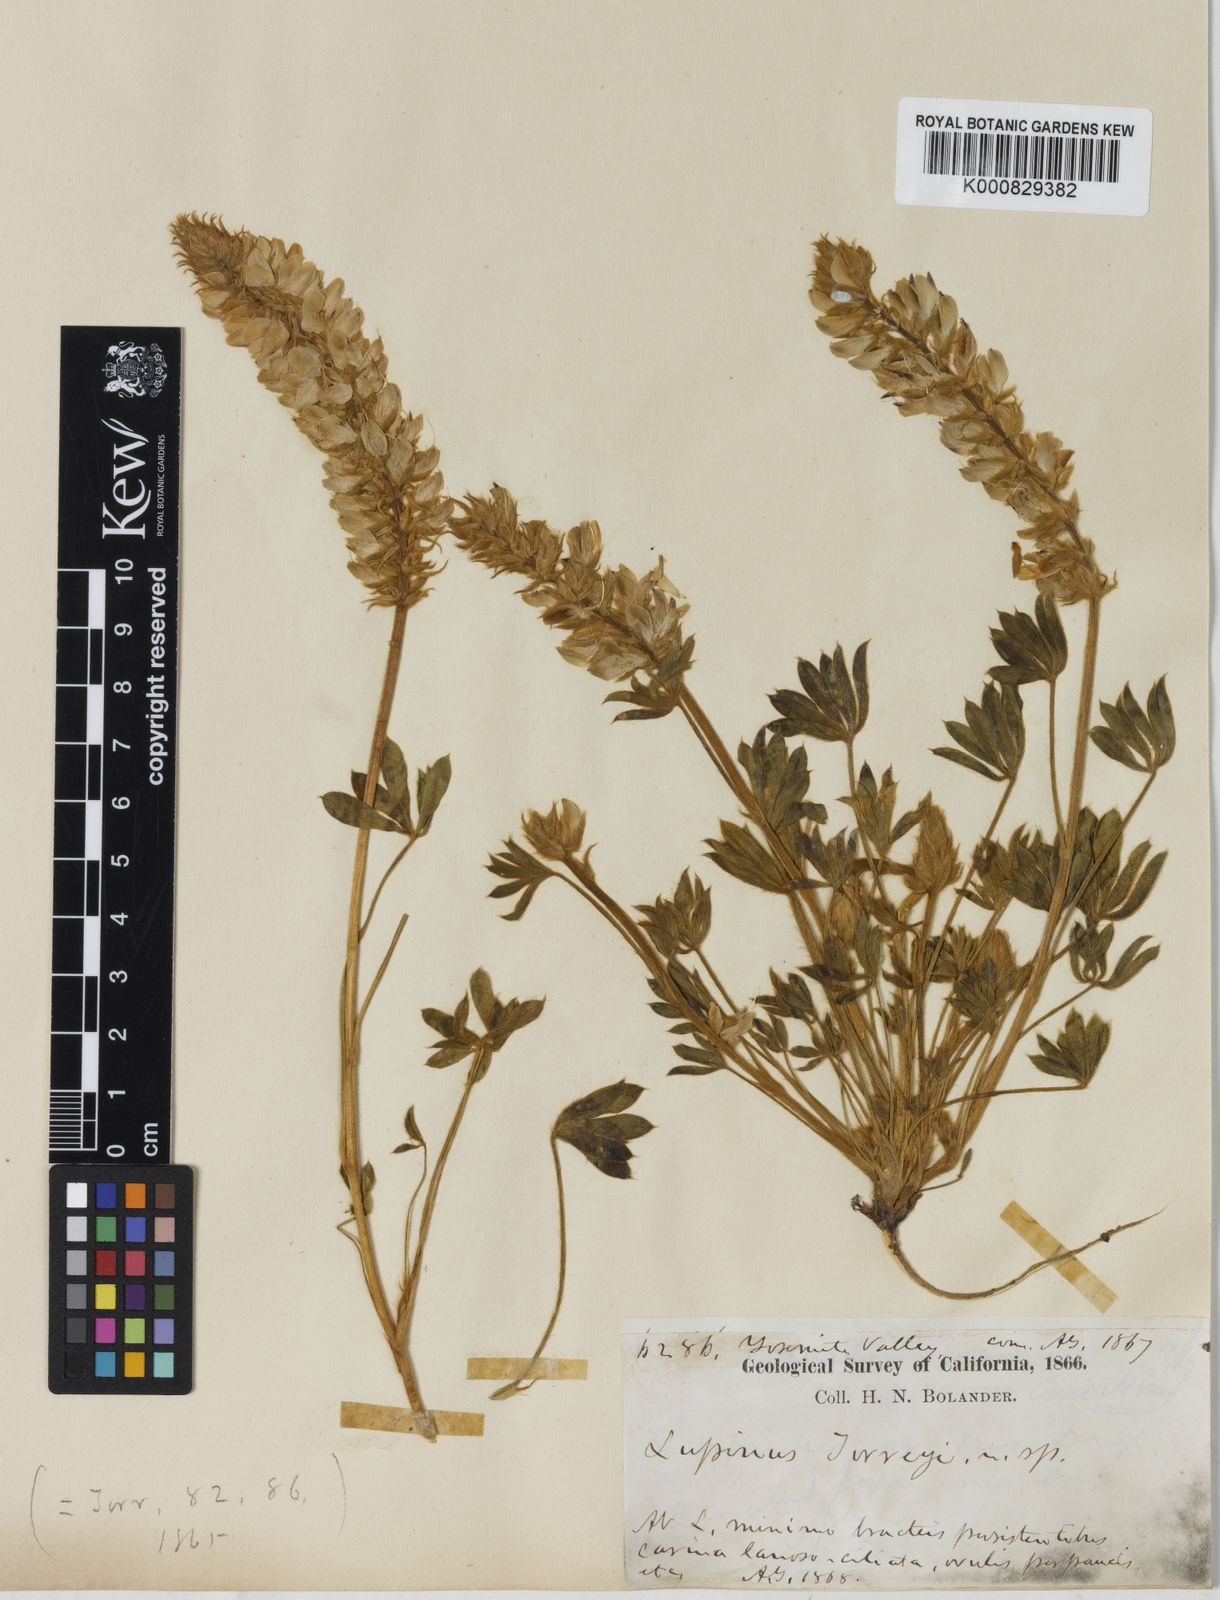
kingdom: Plantae
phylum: Tracheophyta
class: Magnoliopsida
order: Fabales
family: Fabaceae
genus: Lupinus
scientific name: Lupinus
